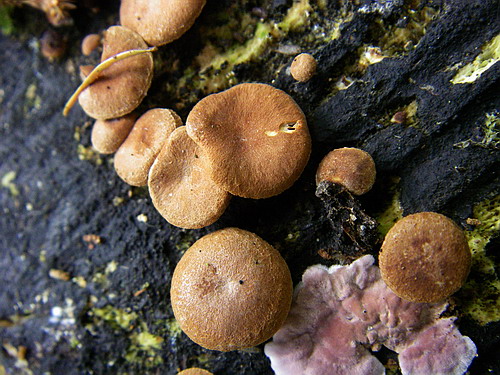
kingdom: Fungi
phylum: Basidiomycota
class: Agaricomycetes
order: Agaricales
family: Strophariaceae
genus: Deconica
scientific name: Deconica horizontalis
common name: ved-stråhat
